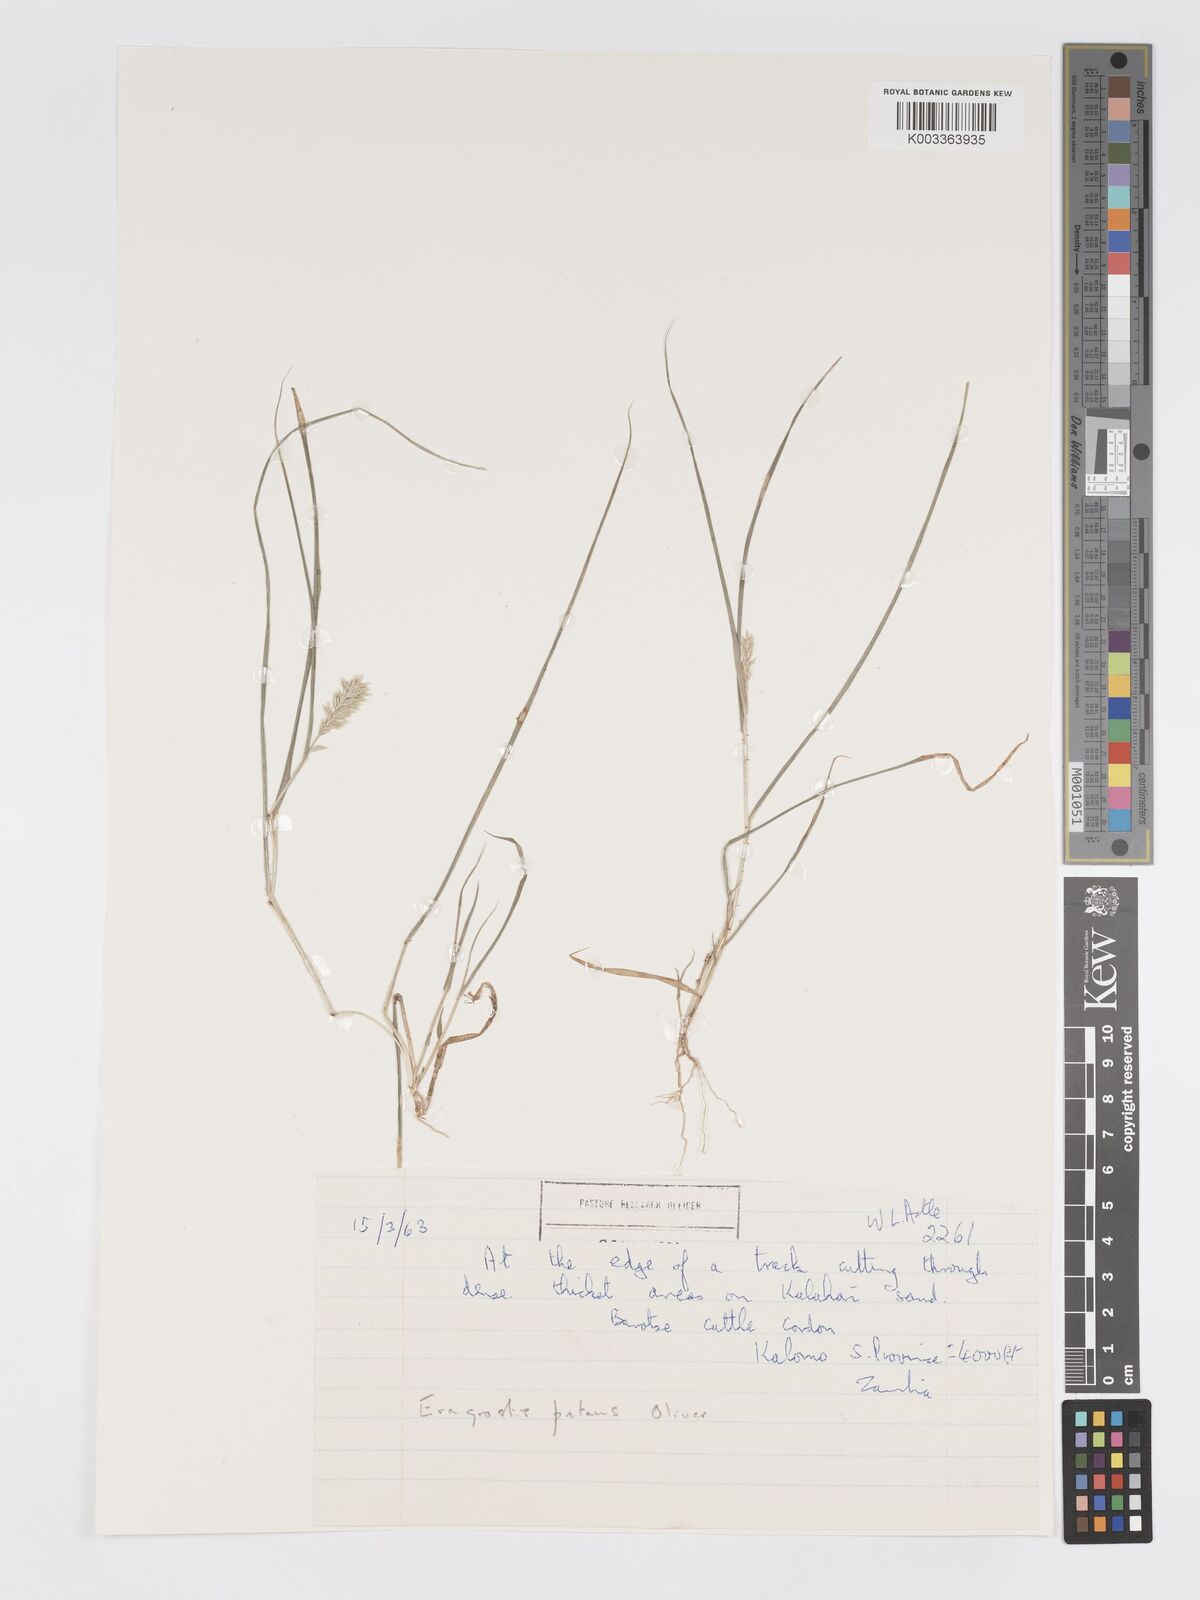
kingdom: Plantae
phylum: Tracheophyta
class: Liliopsida
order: Poales
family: Poaceae
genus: Eragrostis
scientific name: Eragrostis patens
